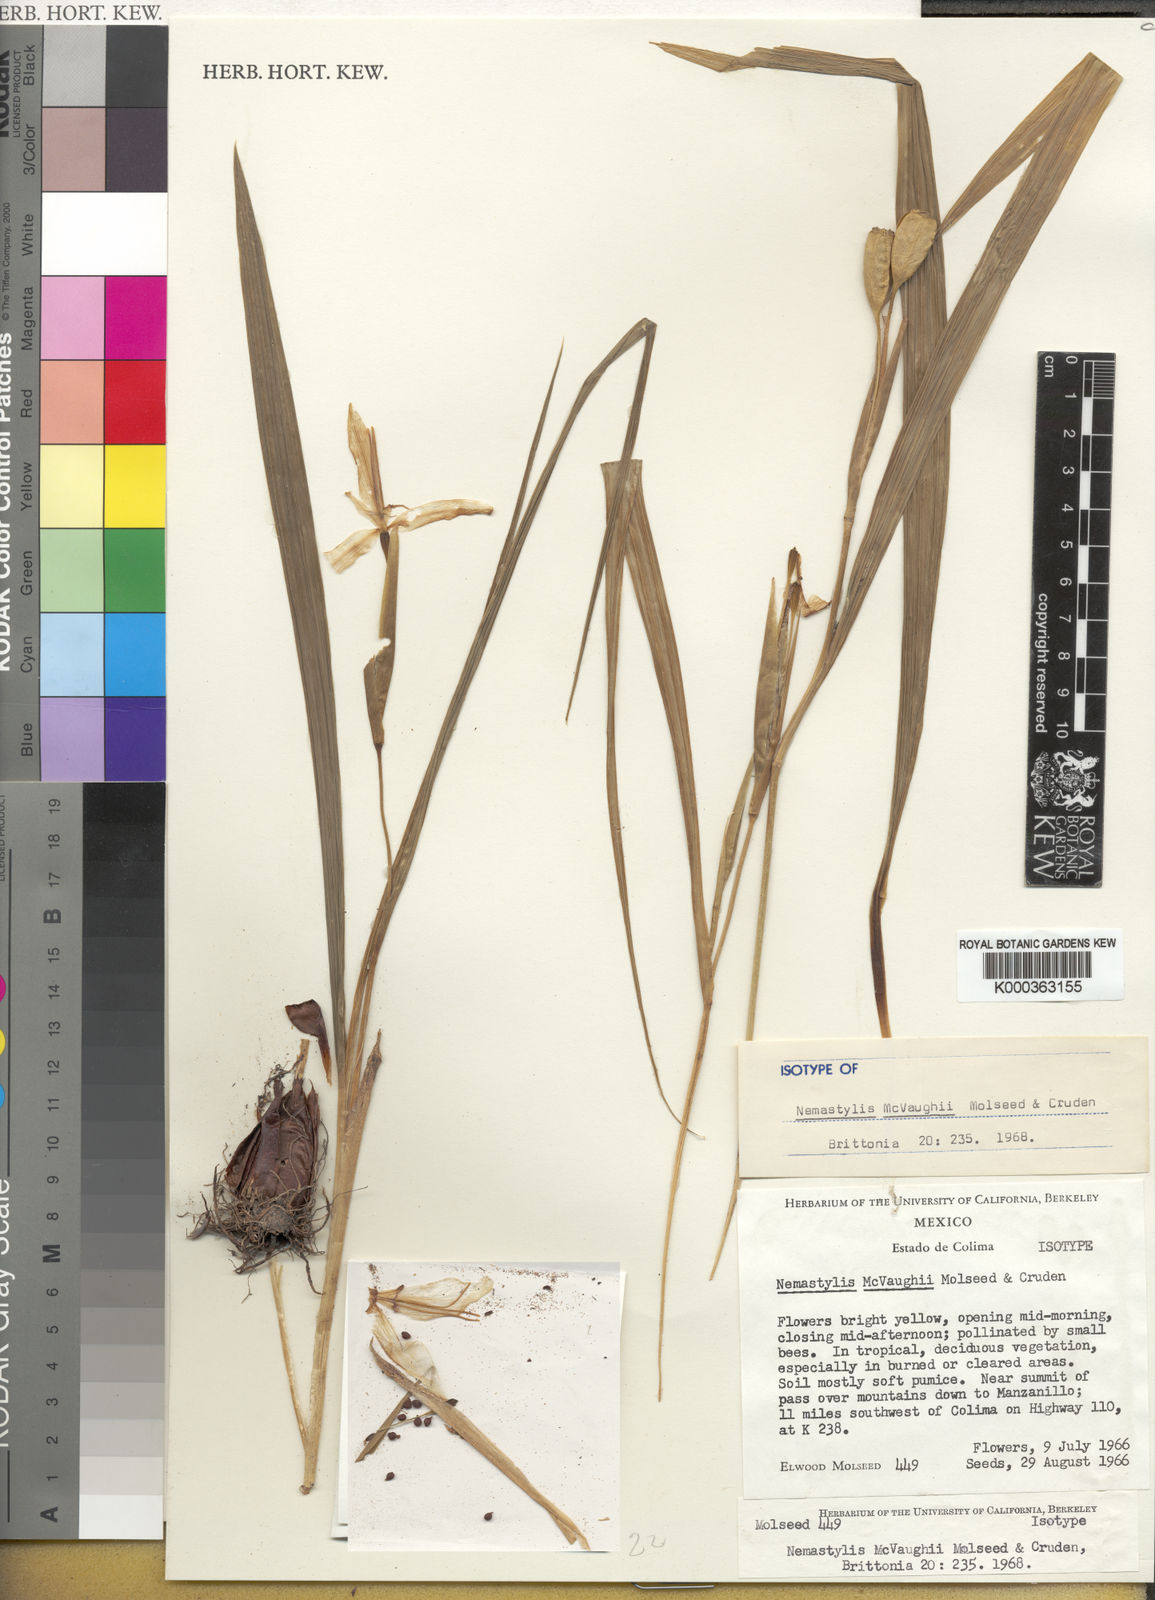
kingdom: Plantae
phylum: Tracheophyta
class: Liliopsida
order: Asparagales
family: Iridaceae
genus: Tigridia
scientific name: Tigridia convoluta
